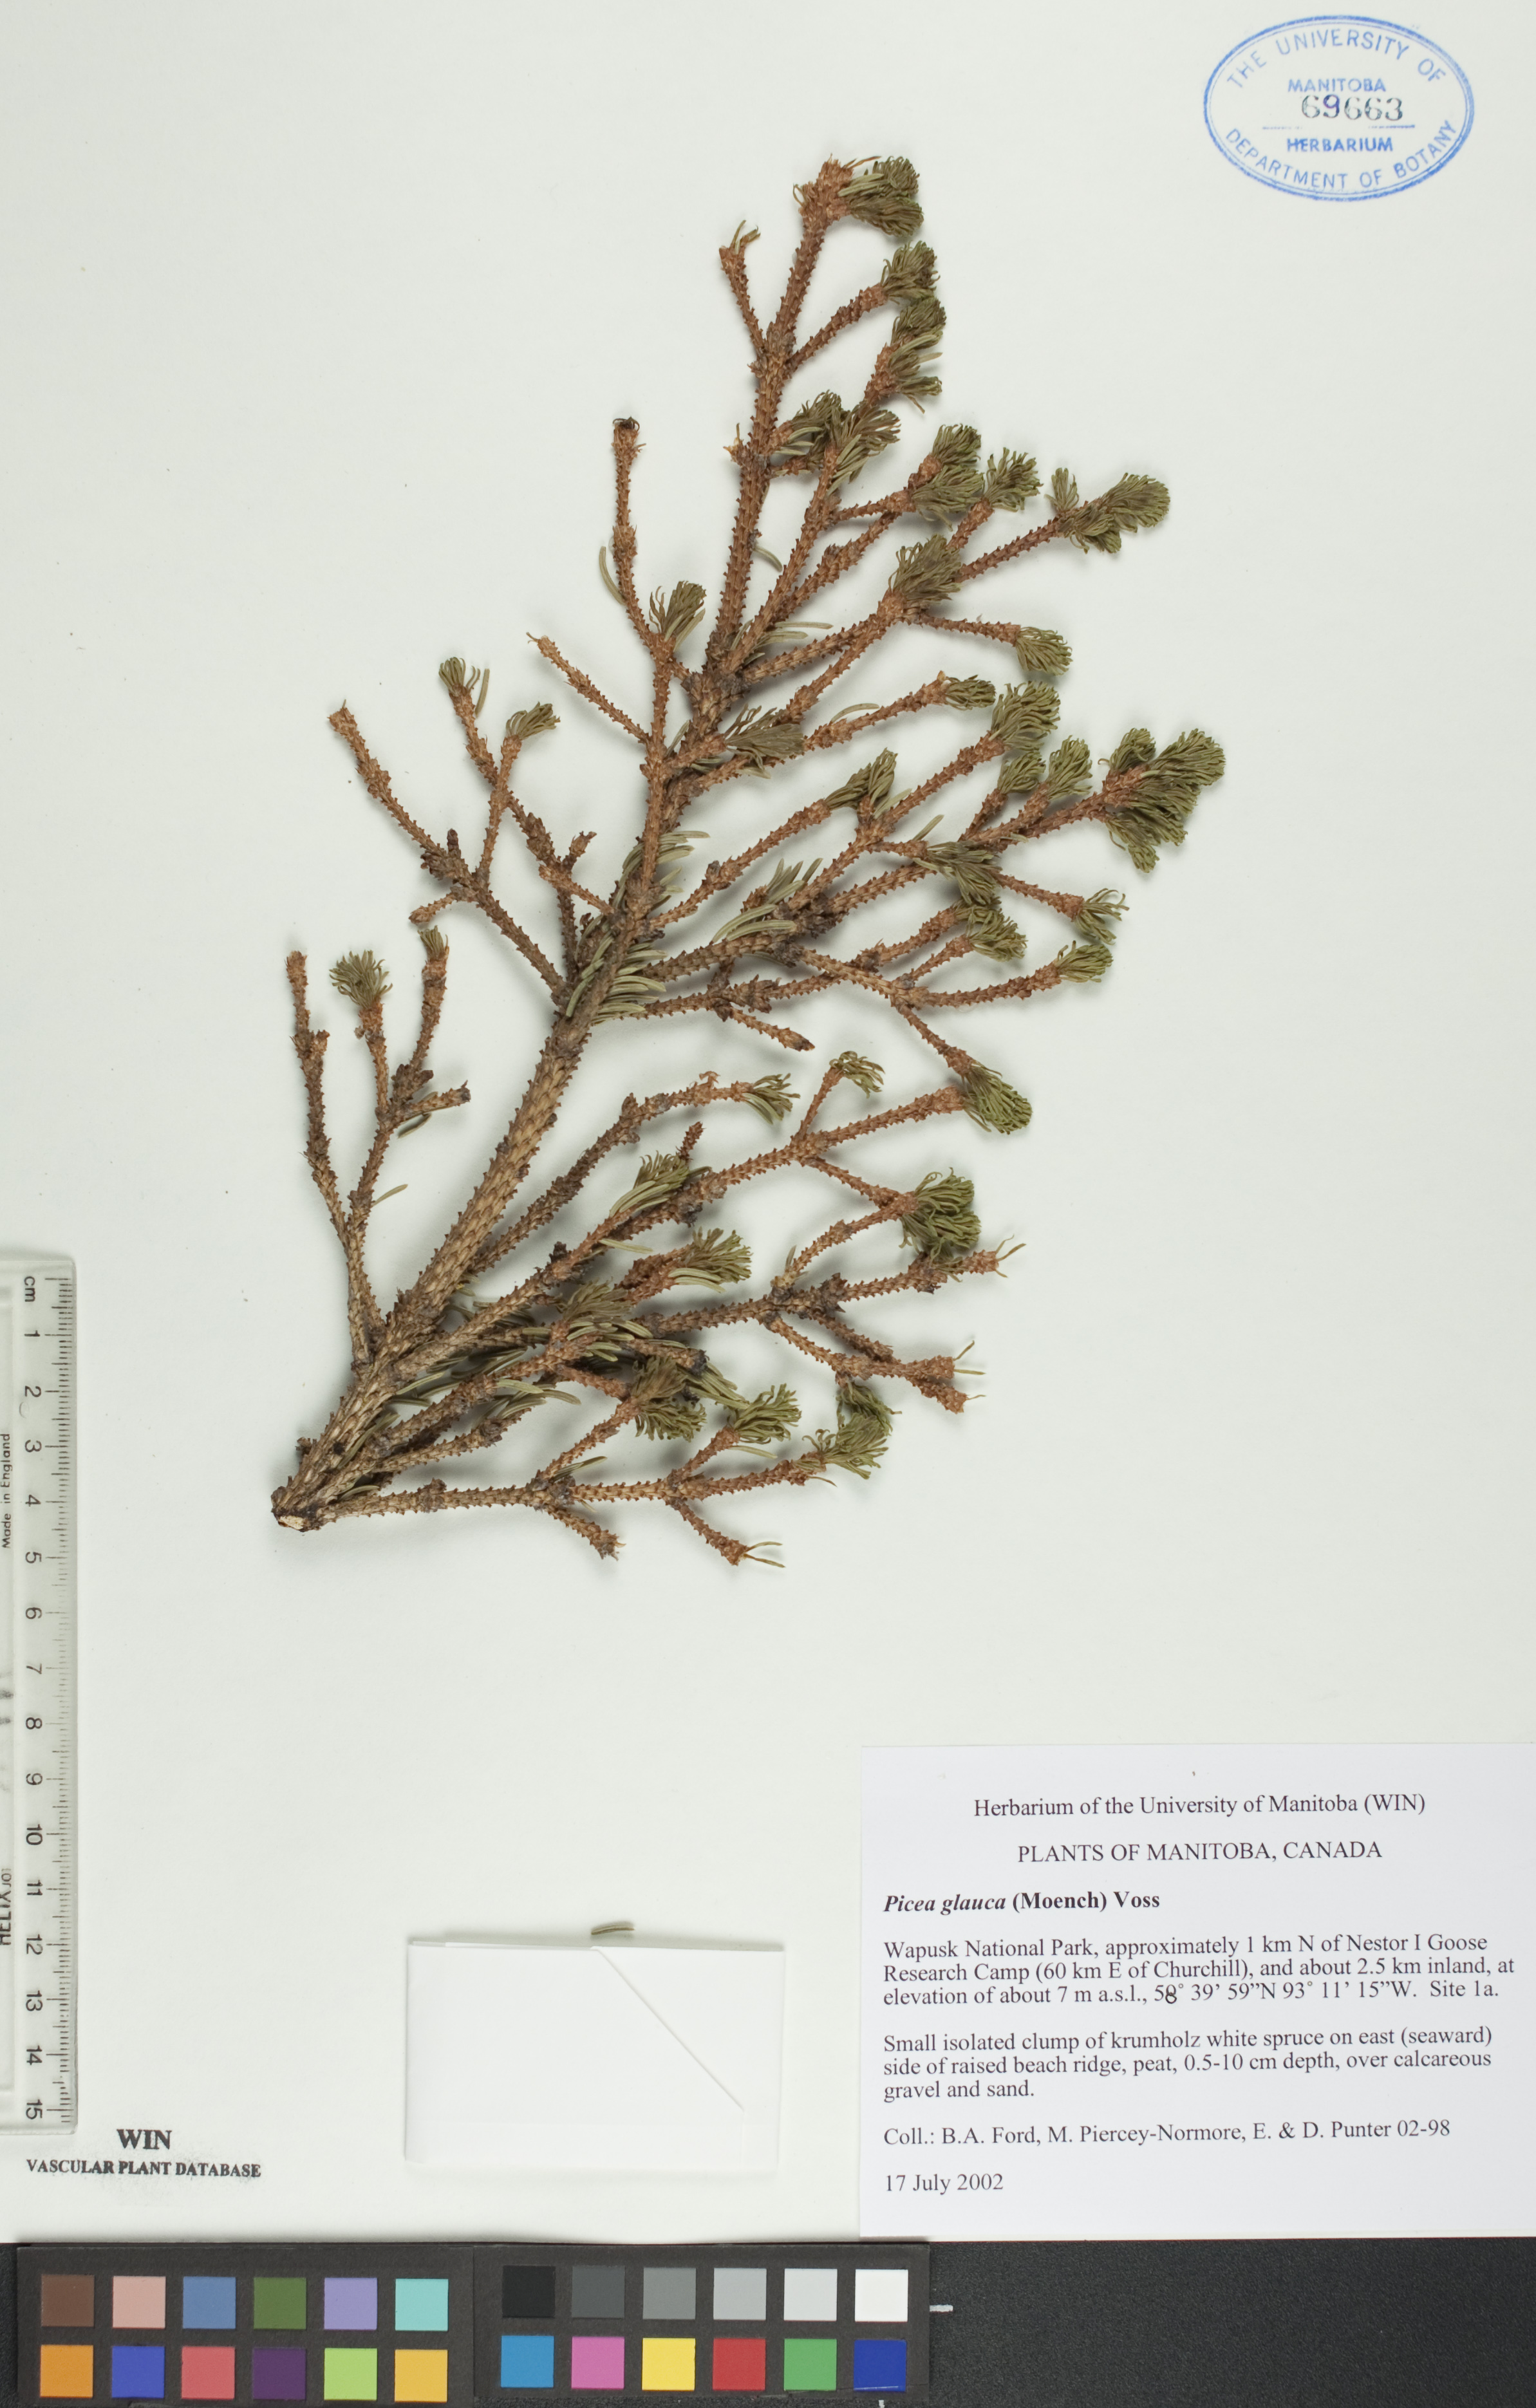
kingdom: Plantae
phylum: Tracheophyta
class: Pinopsida
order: Pinales
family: Pinaceae
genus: Picea
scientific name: Picea glauca
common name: White spruce
